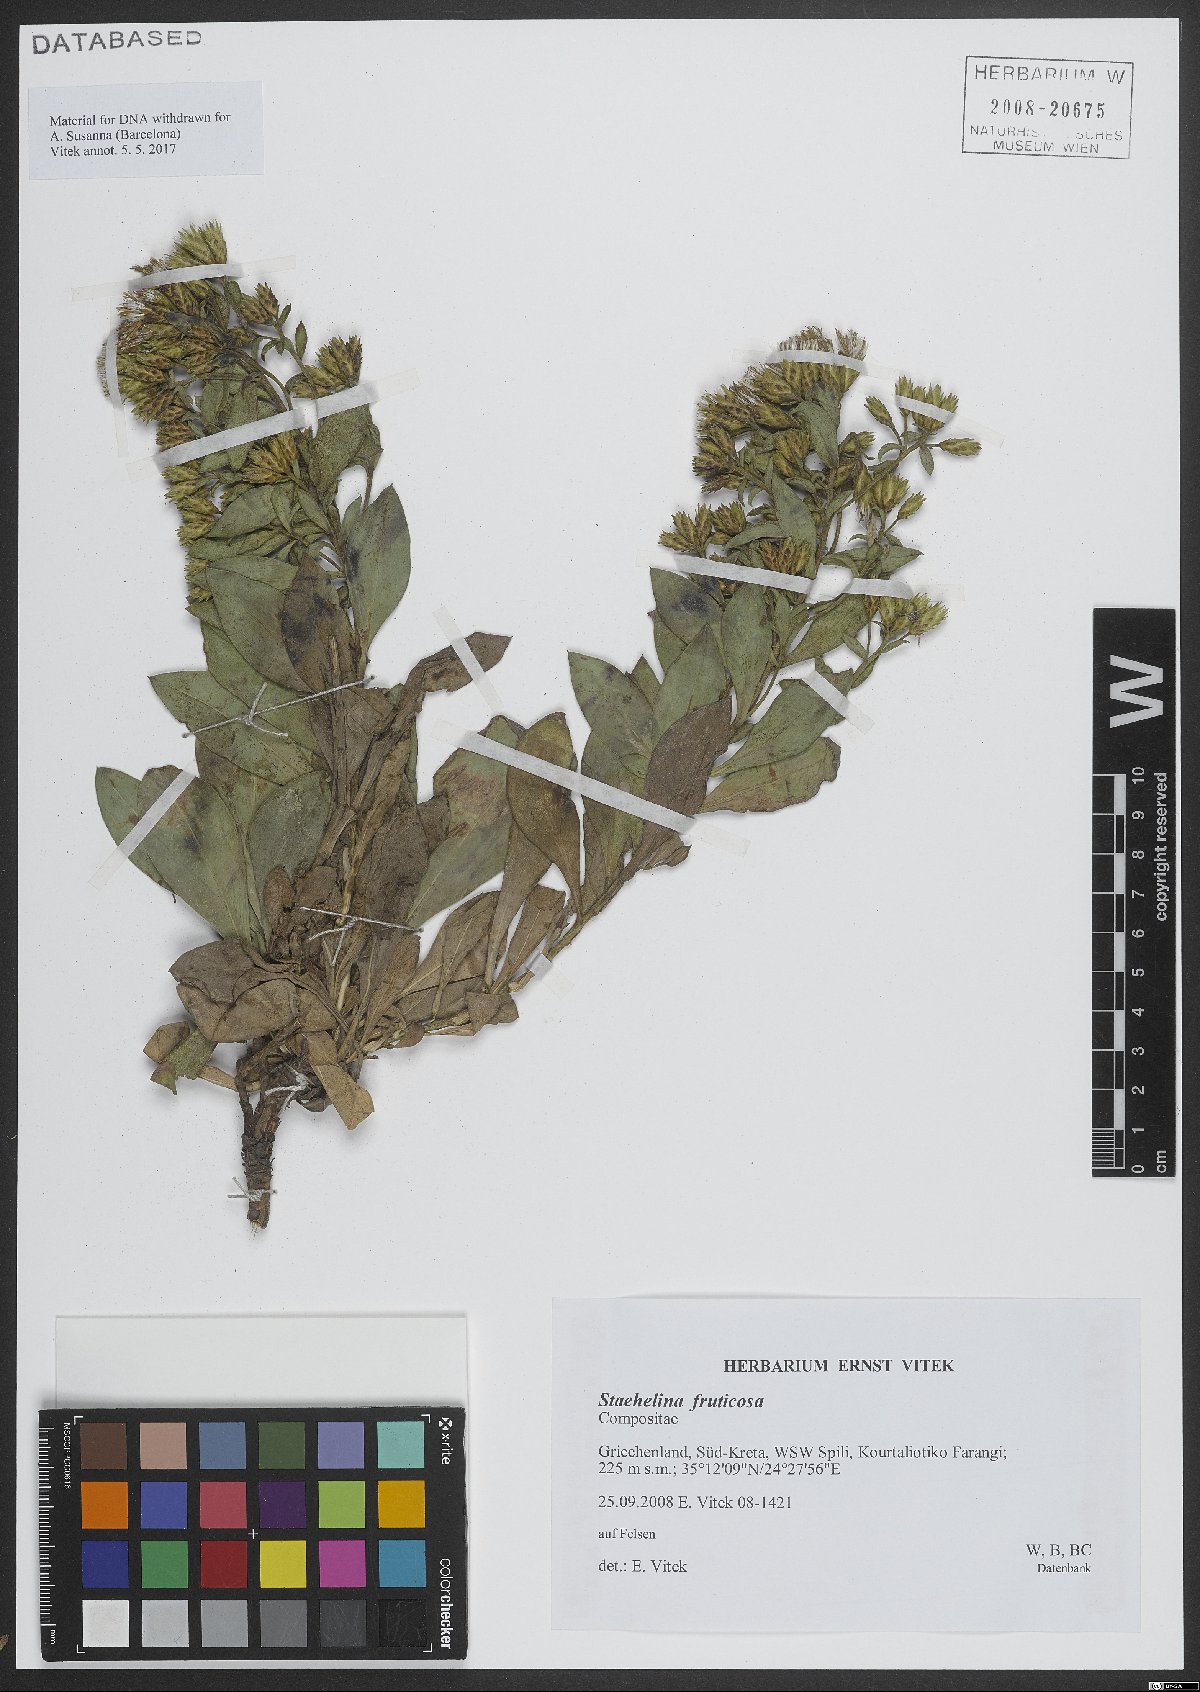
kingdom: Plantae
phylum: Tracheophyta
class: Magnoliopsida
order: Asterales
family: Asteraceae
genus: Hirtellina
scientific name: Hirtellina fruticosa
